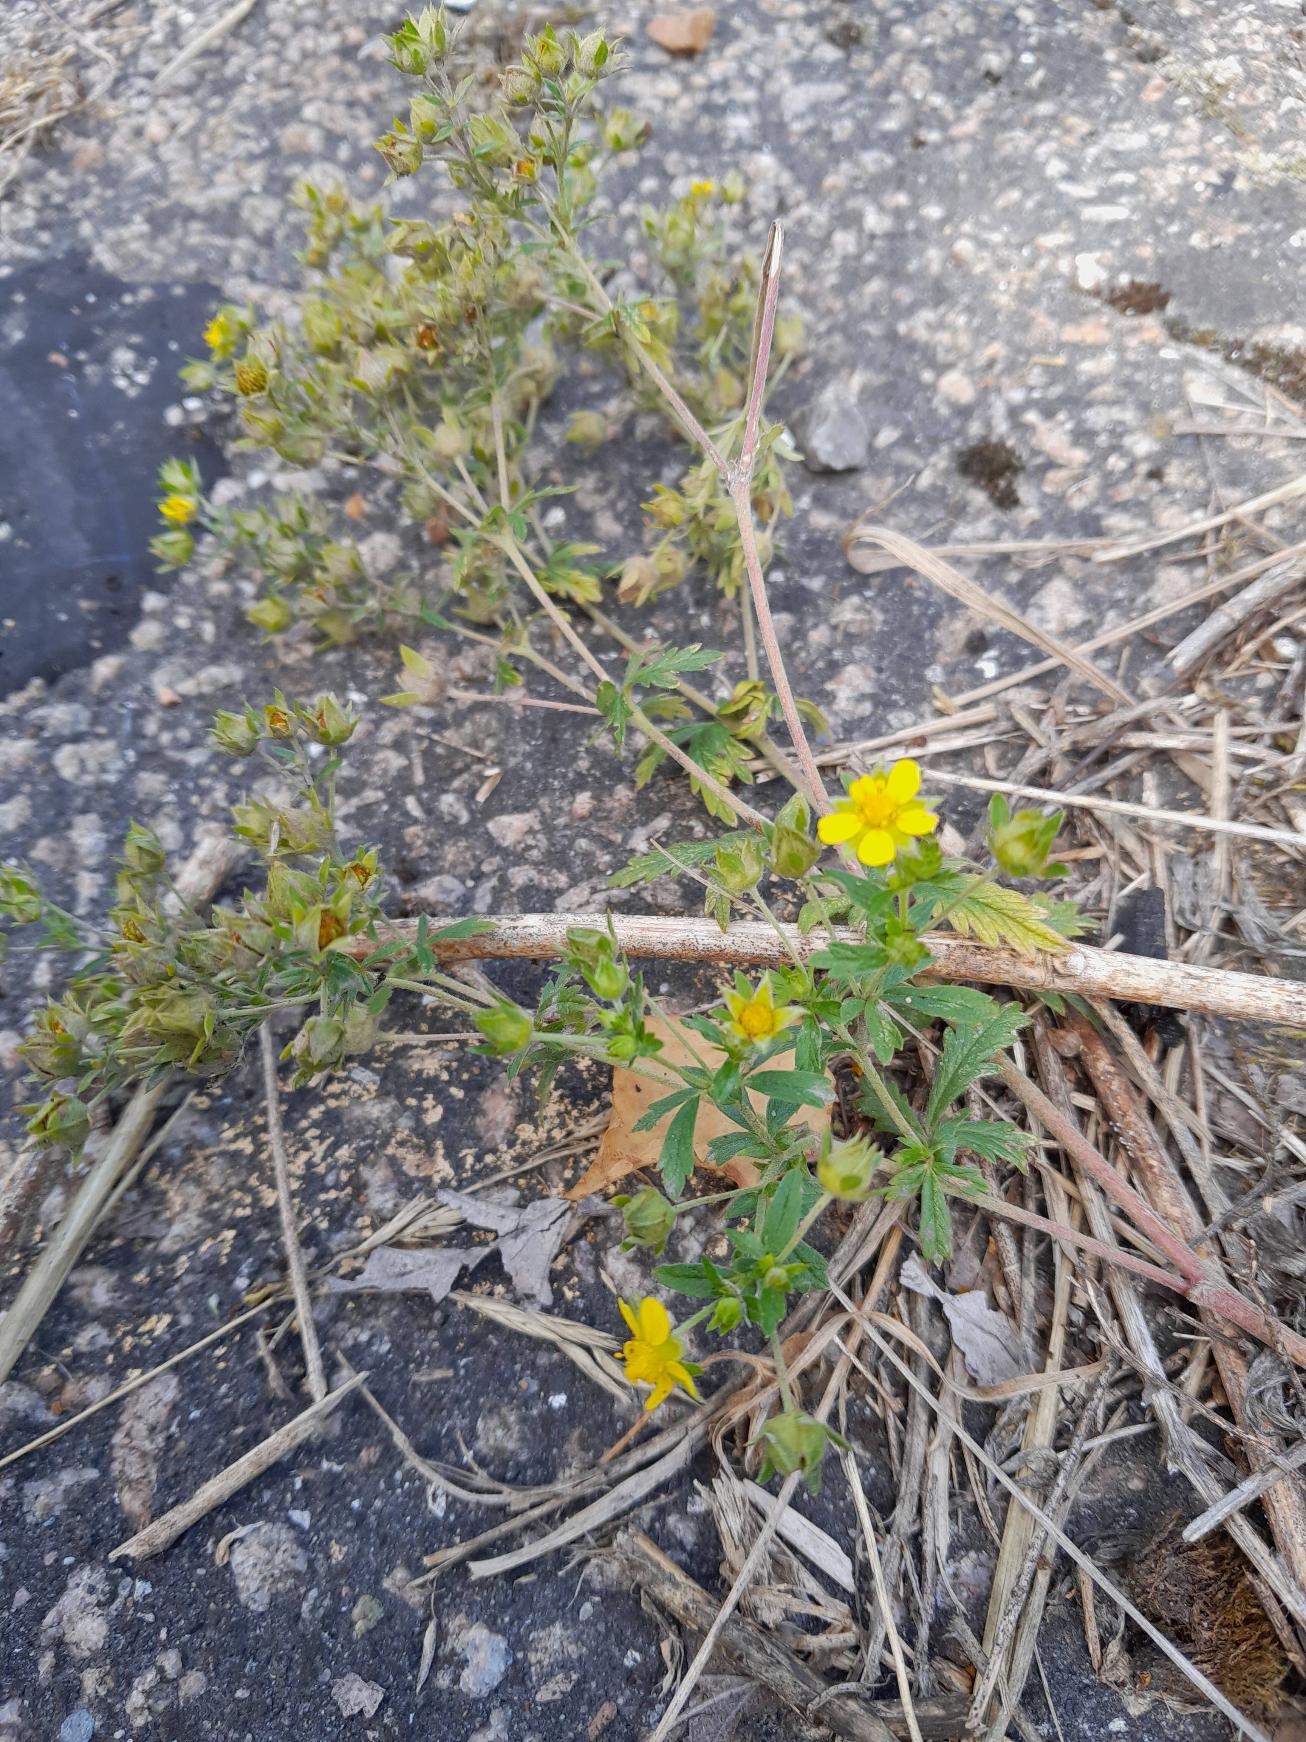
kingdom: Plantae
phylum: Tracheophyta
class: Magnoliopsida
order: Rosales
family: Rosaceae
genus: Potentilla
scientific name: Potentilla intermedia
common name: Småblomstret potentil
